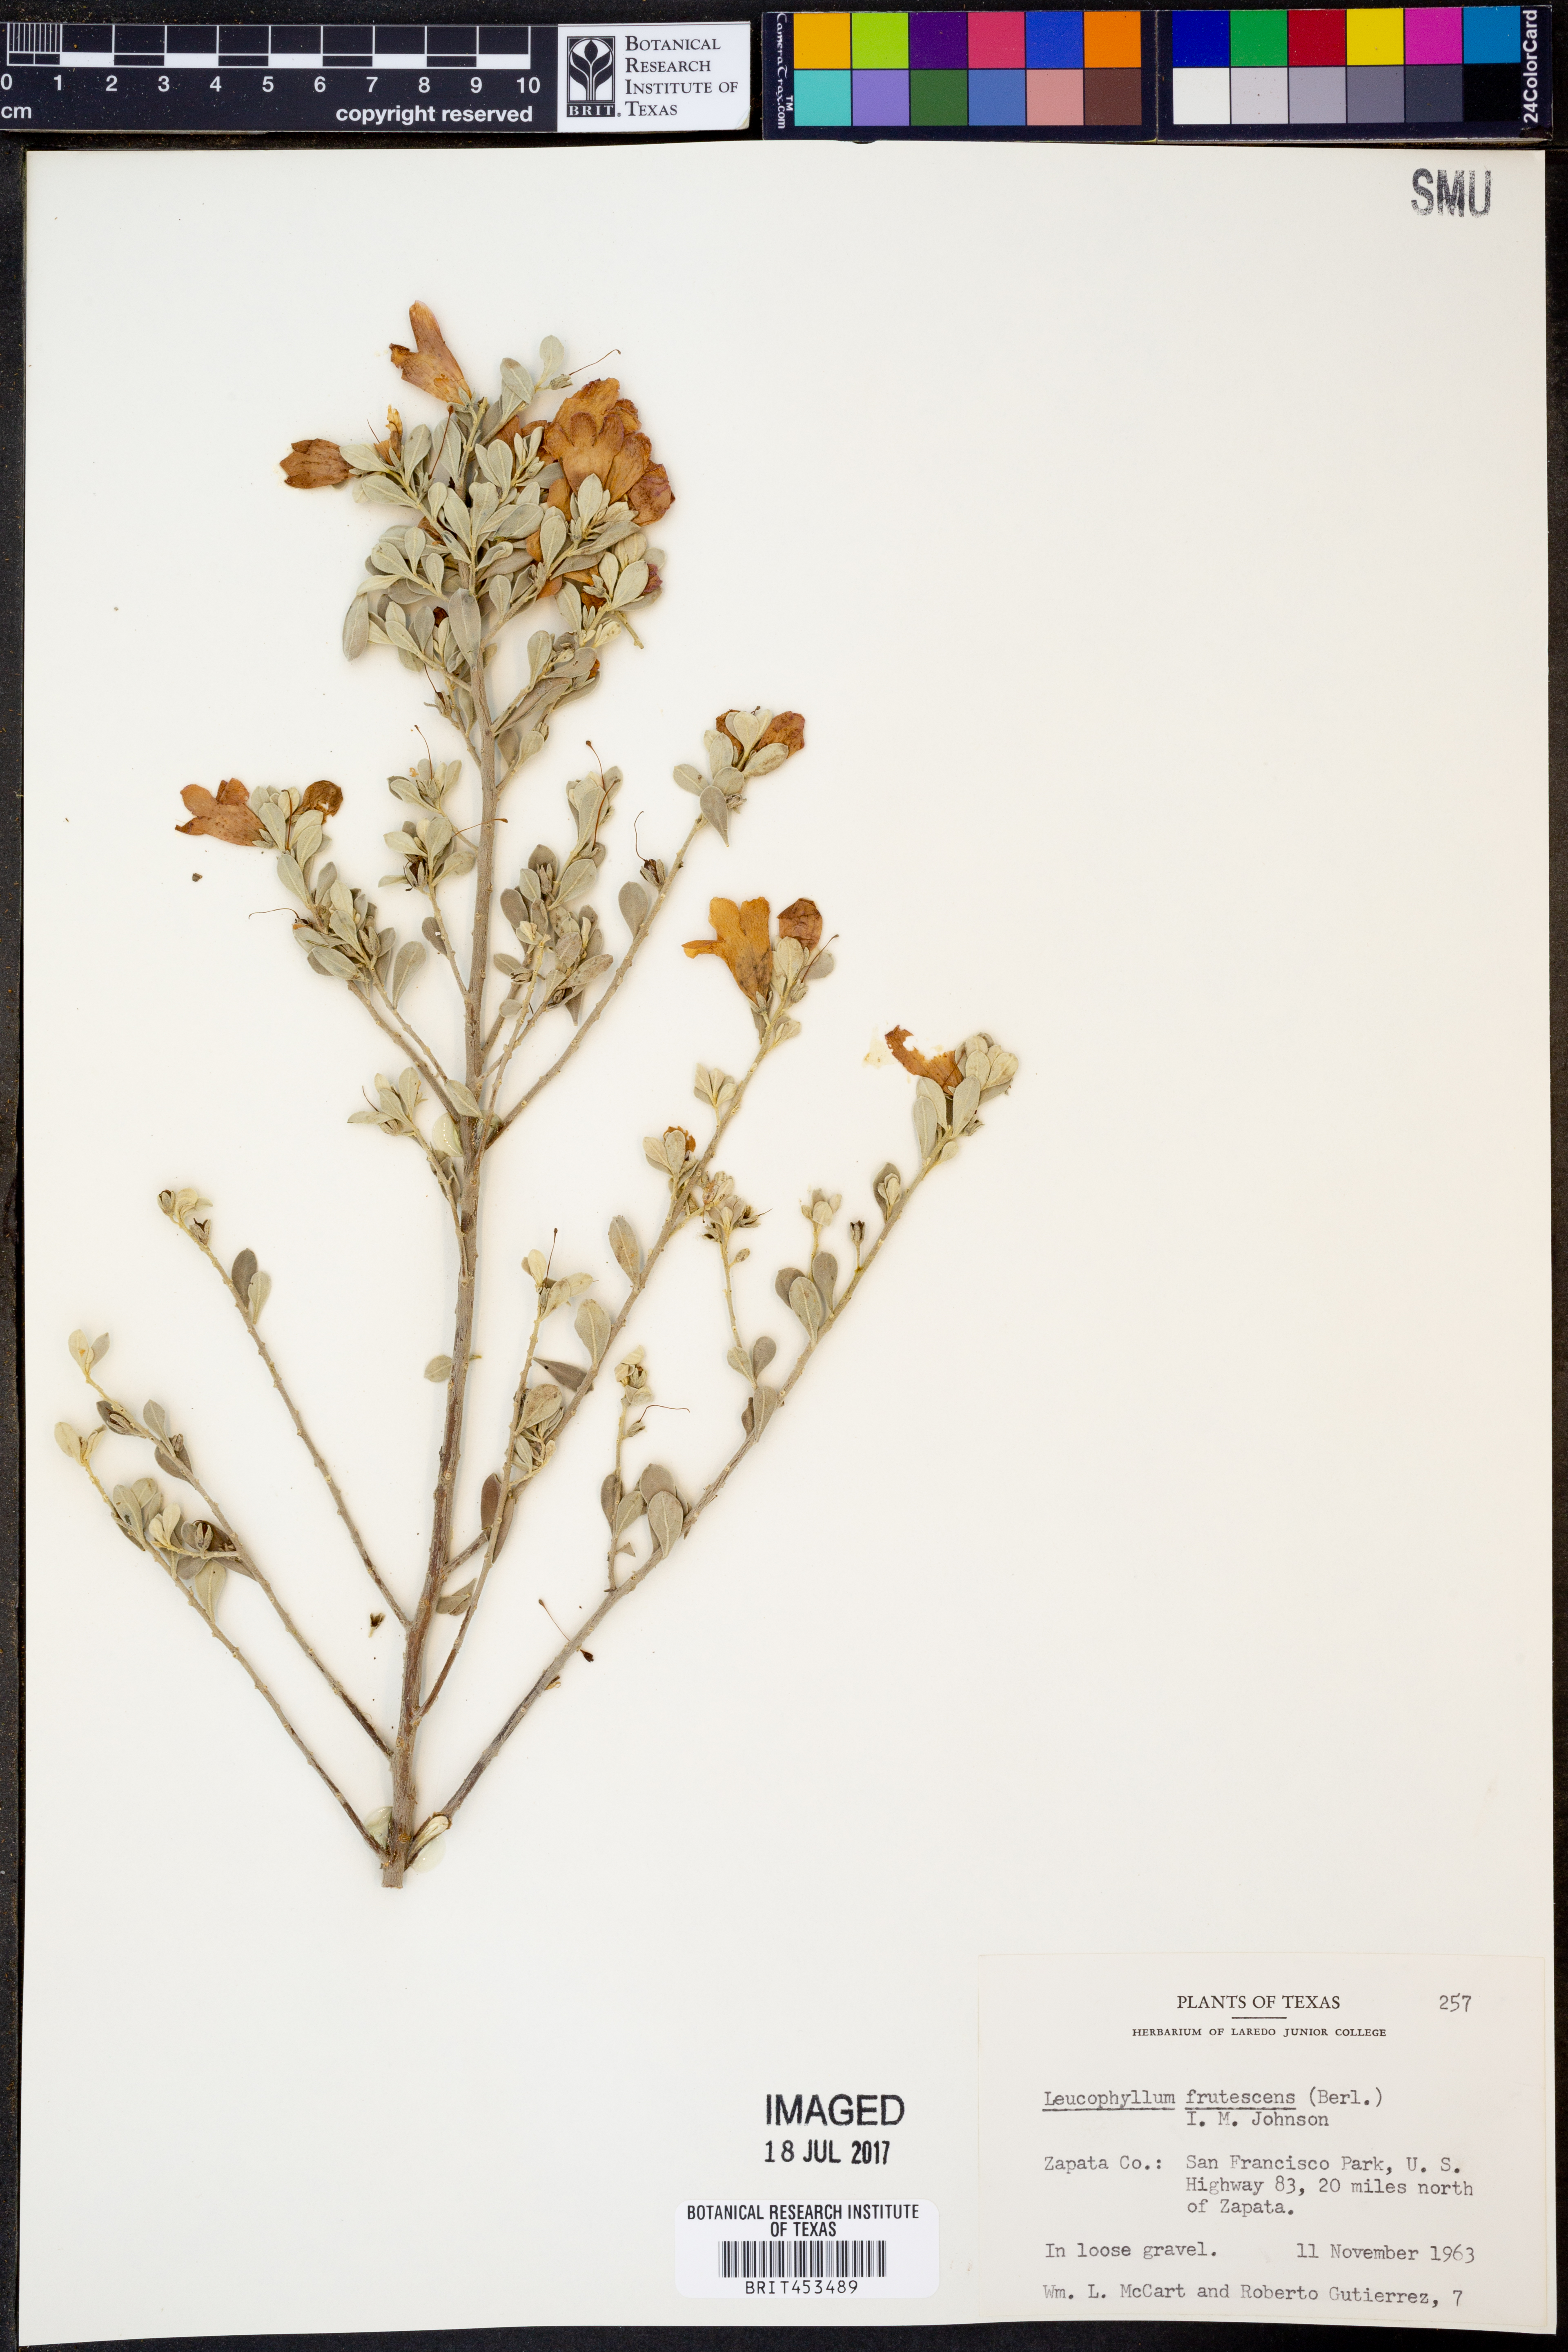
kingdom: Plantae
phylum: Tracheophyta
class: Magnoliopsida
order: Lamiales
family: Scrophulariaceae
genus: Leucophyllum
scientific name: Leucophyllum frutescens
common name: Texas silverleaf
